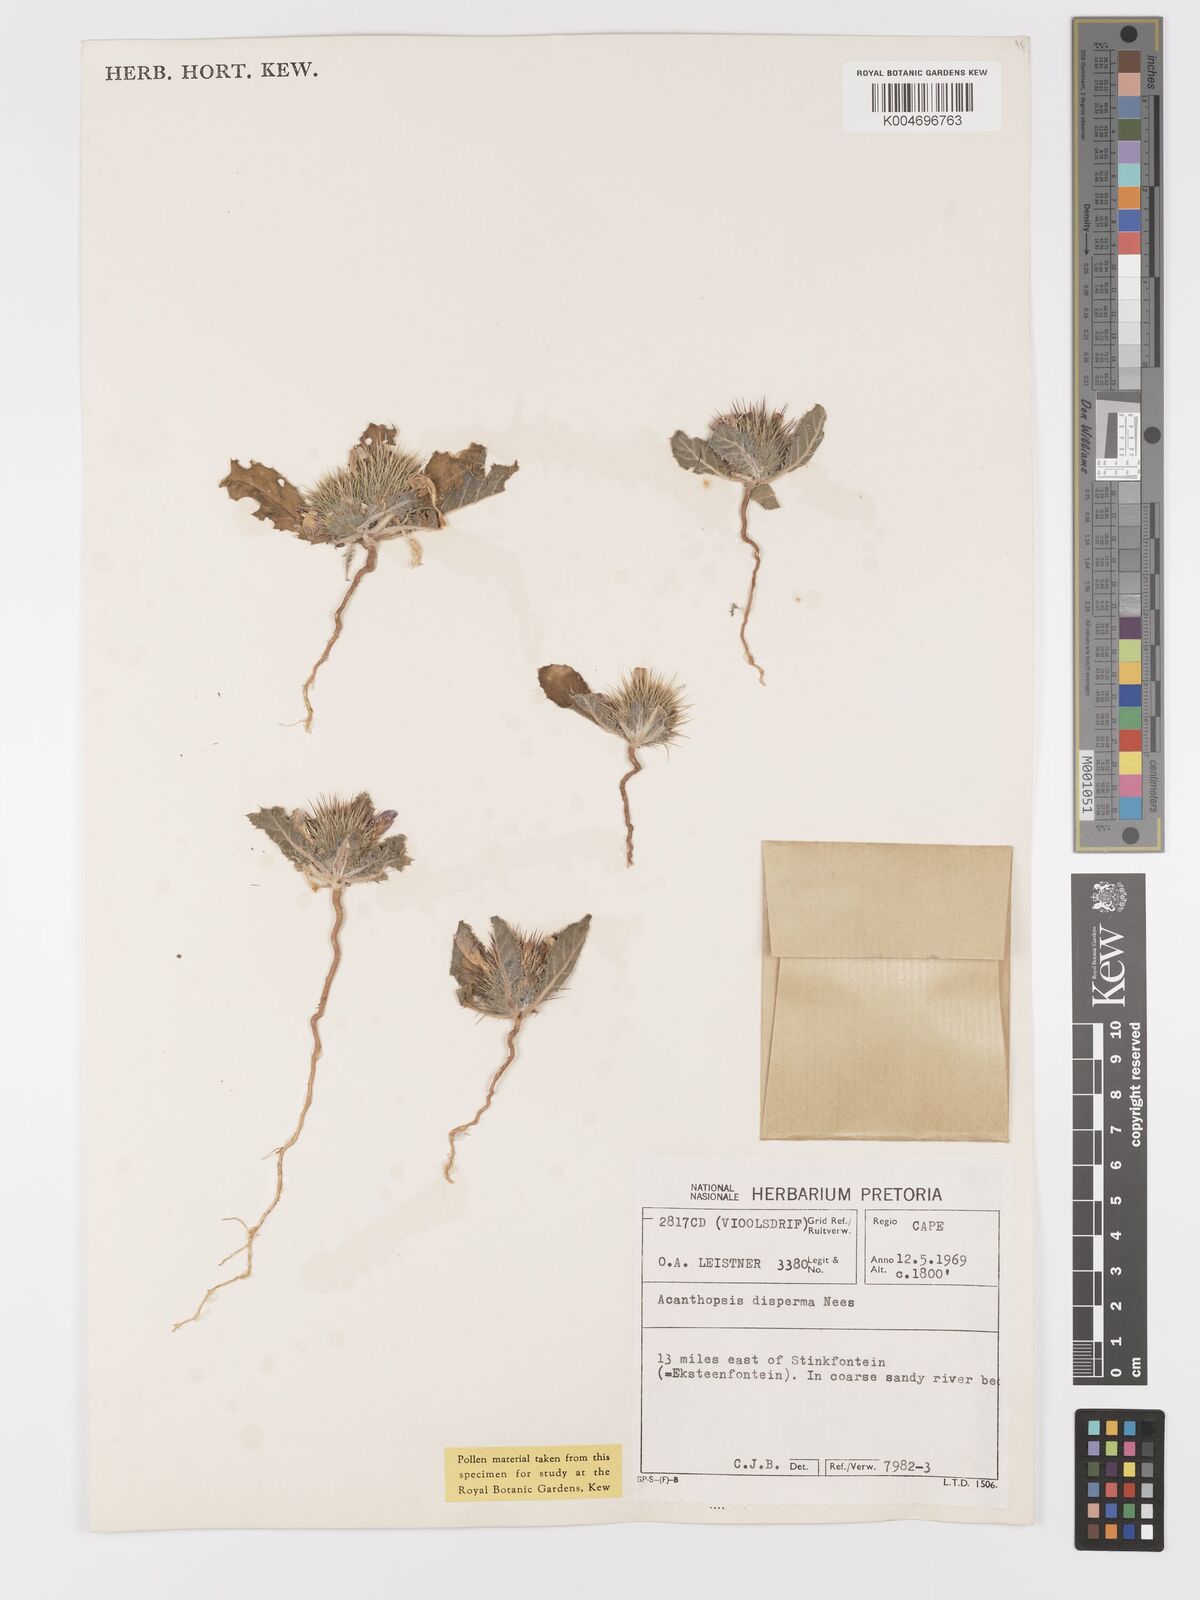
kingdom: Plantae
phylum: Tracheophyta
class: Magnoliopsida
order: Lamiales
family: Acanthaceae
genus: Acanthopsis
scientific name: Acanthopsis disperma
